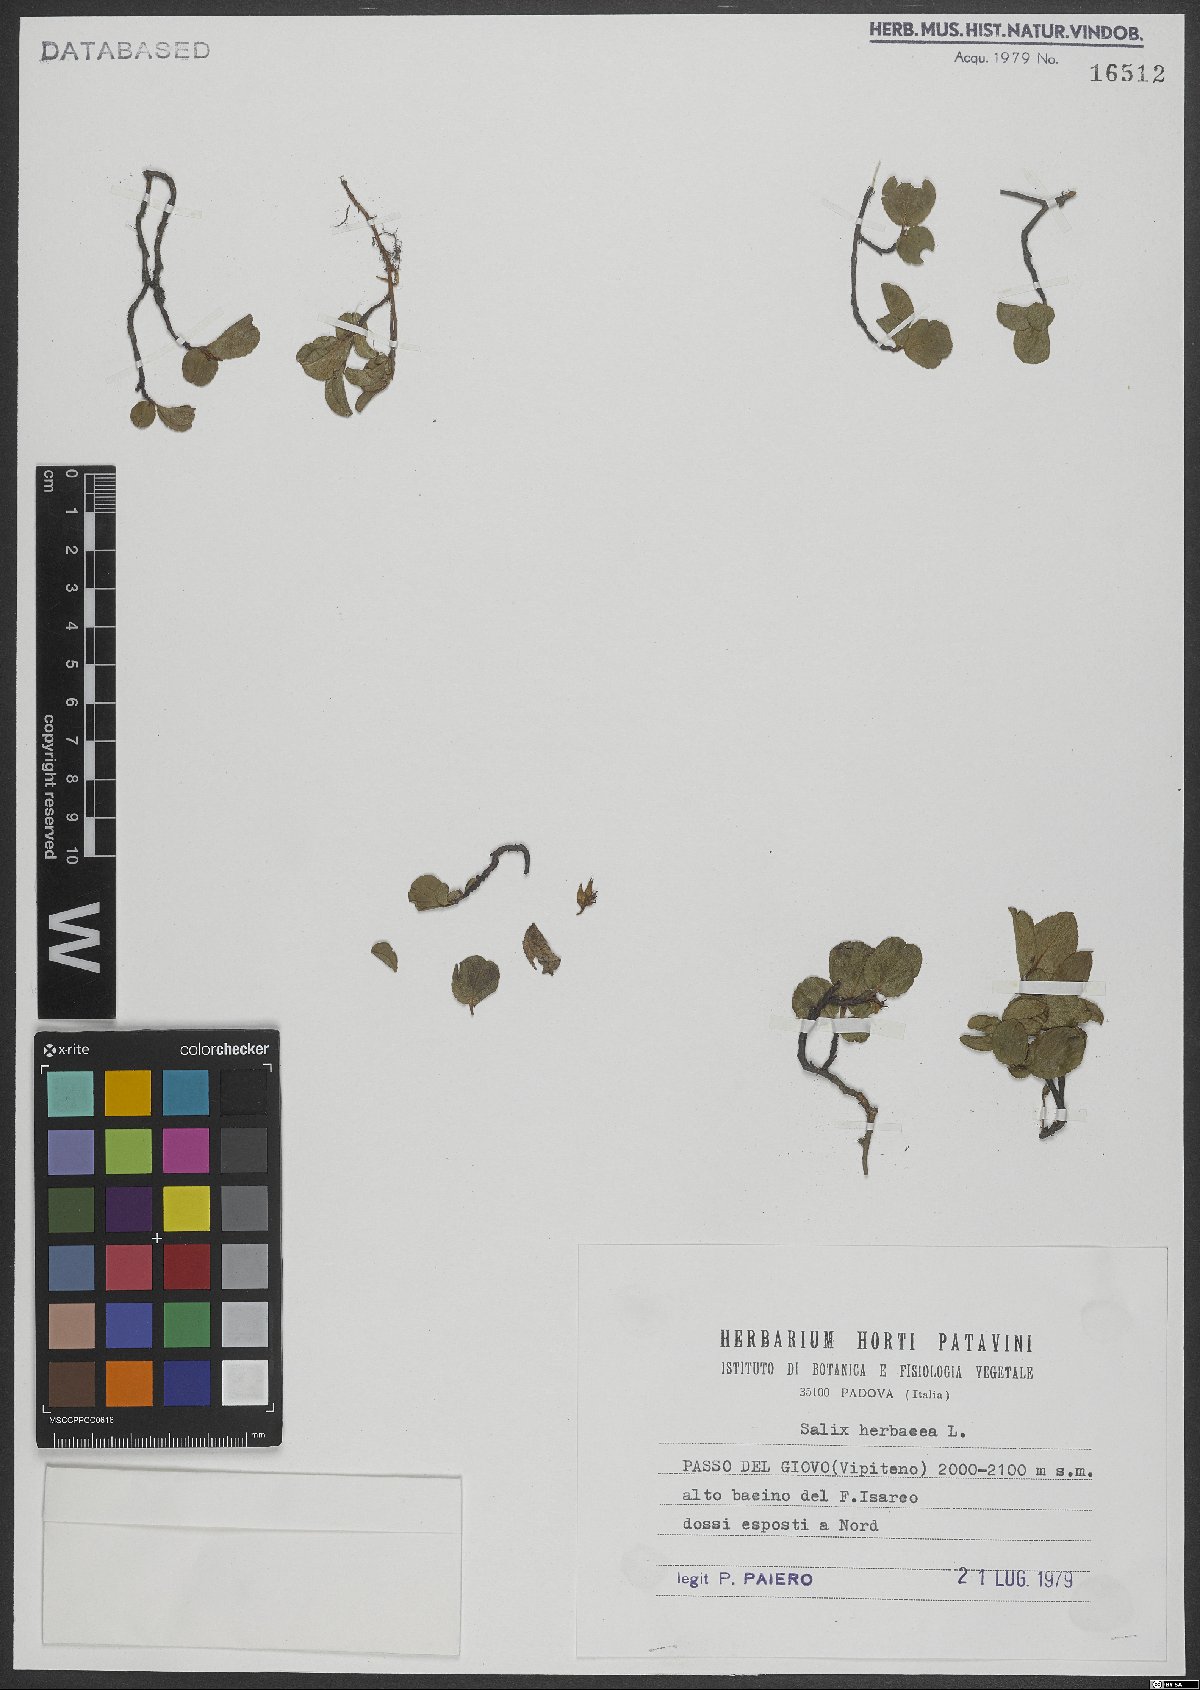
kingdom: Plantae
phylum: Tracheophyta
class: Magnoliopsida
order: Malpighiales
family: Salicaceae
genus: Salix
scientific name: Salix herbacea
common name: Dwarf willow
